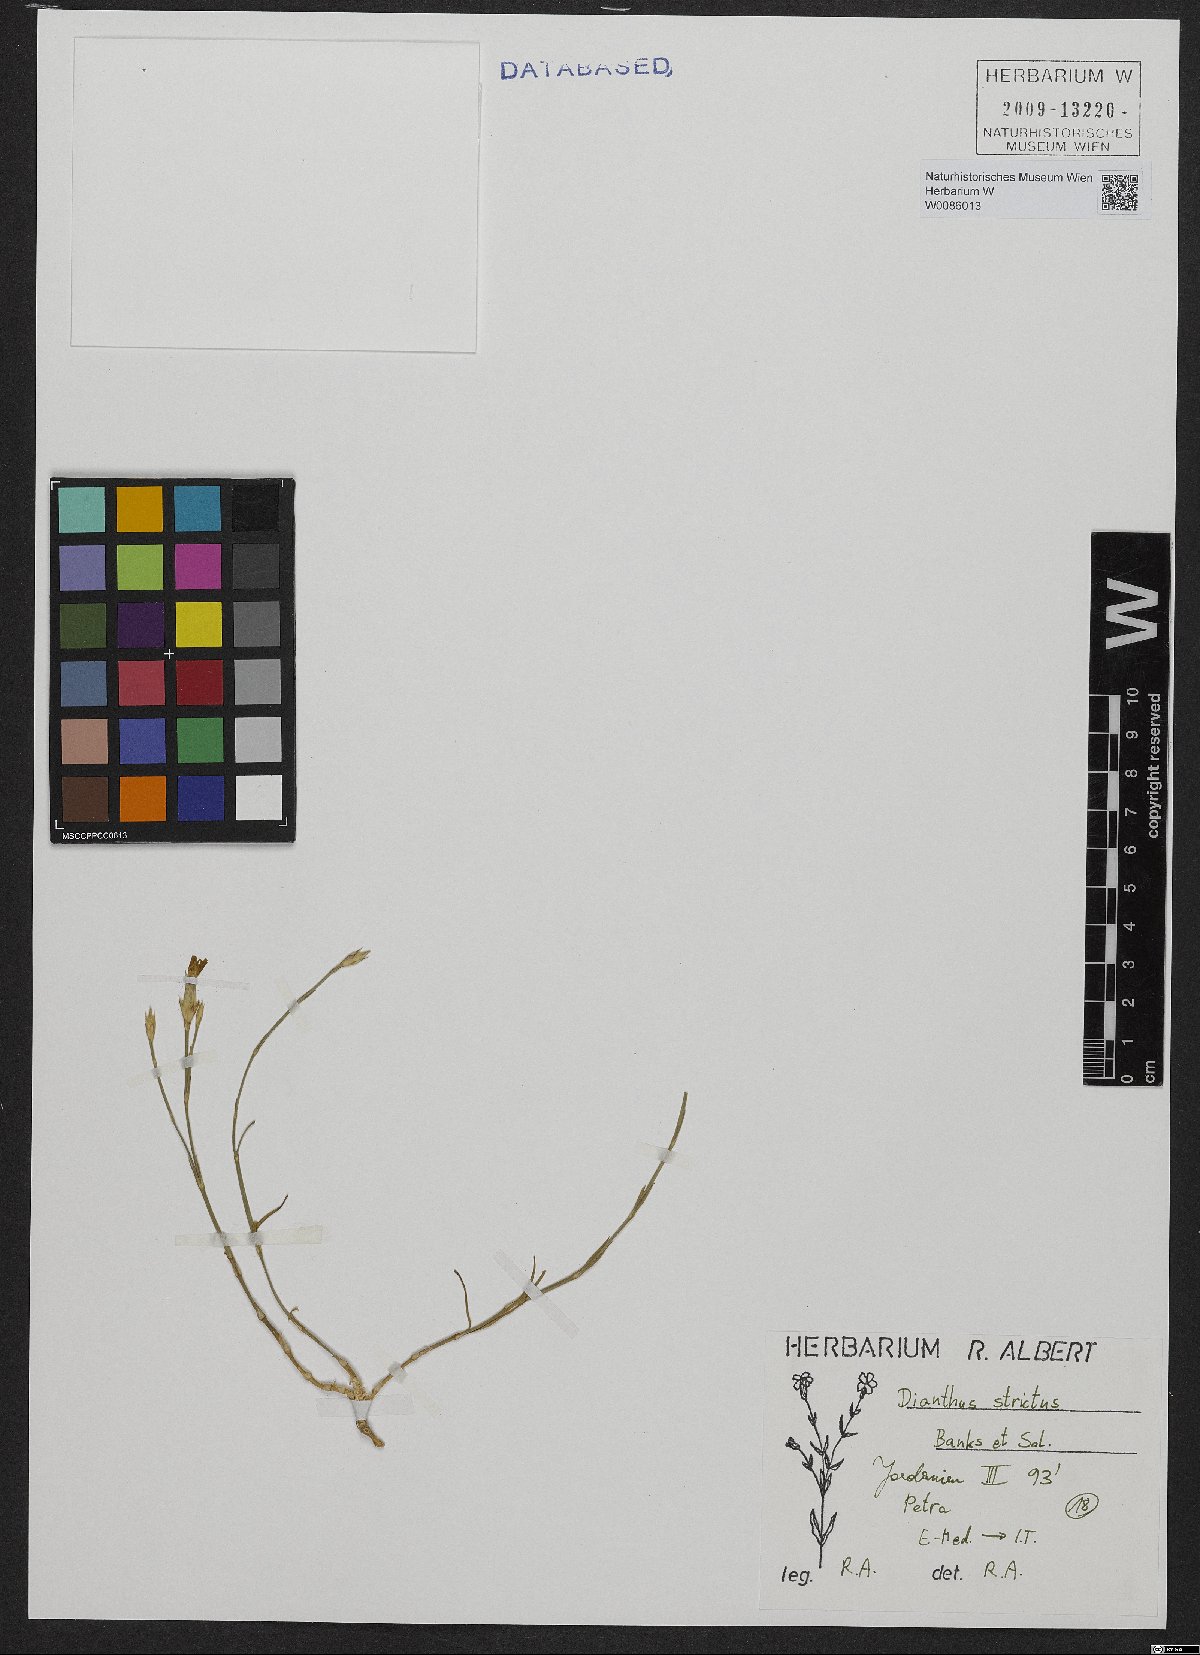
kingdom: Plantae
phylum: Tracheophyta
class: Magnoliopsida
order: Caryophyllales
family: Caryophyllaceae
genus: Dianthus
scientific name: Dianthus strictus
